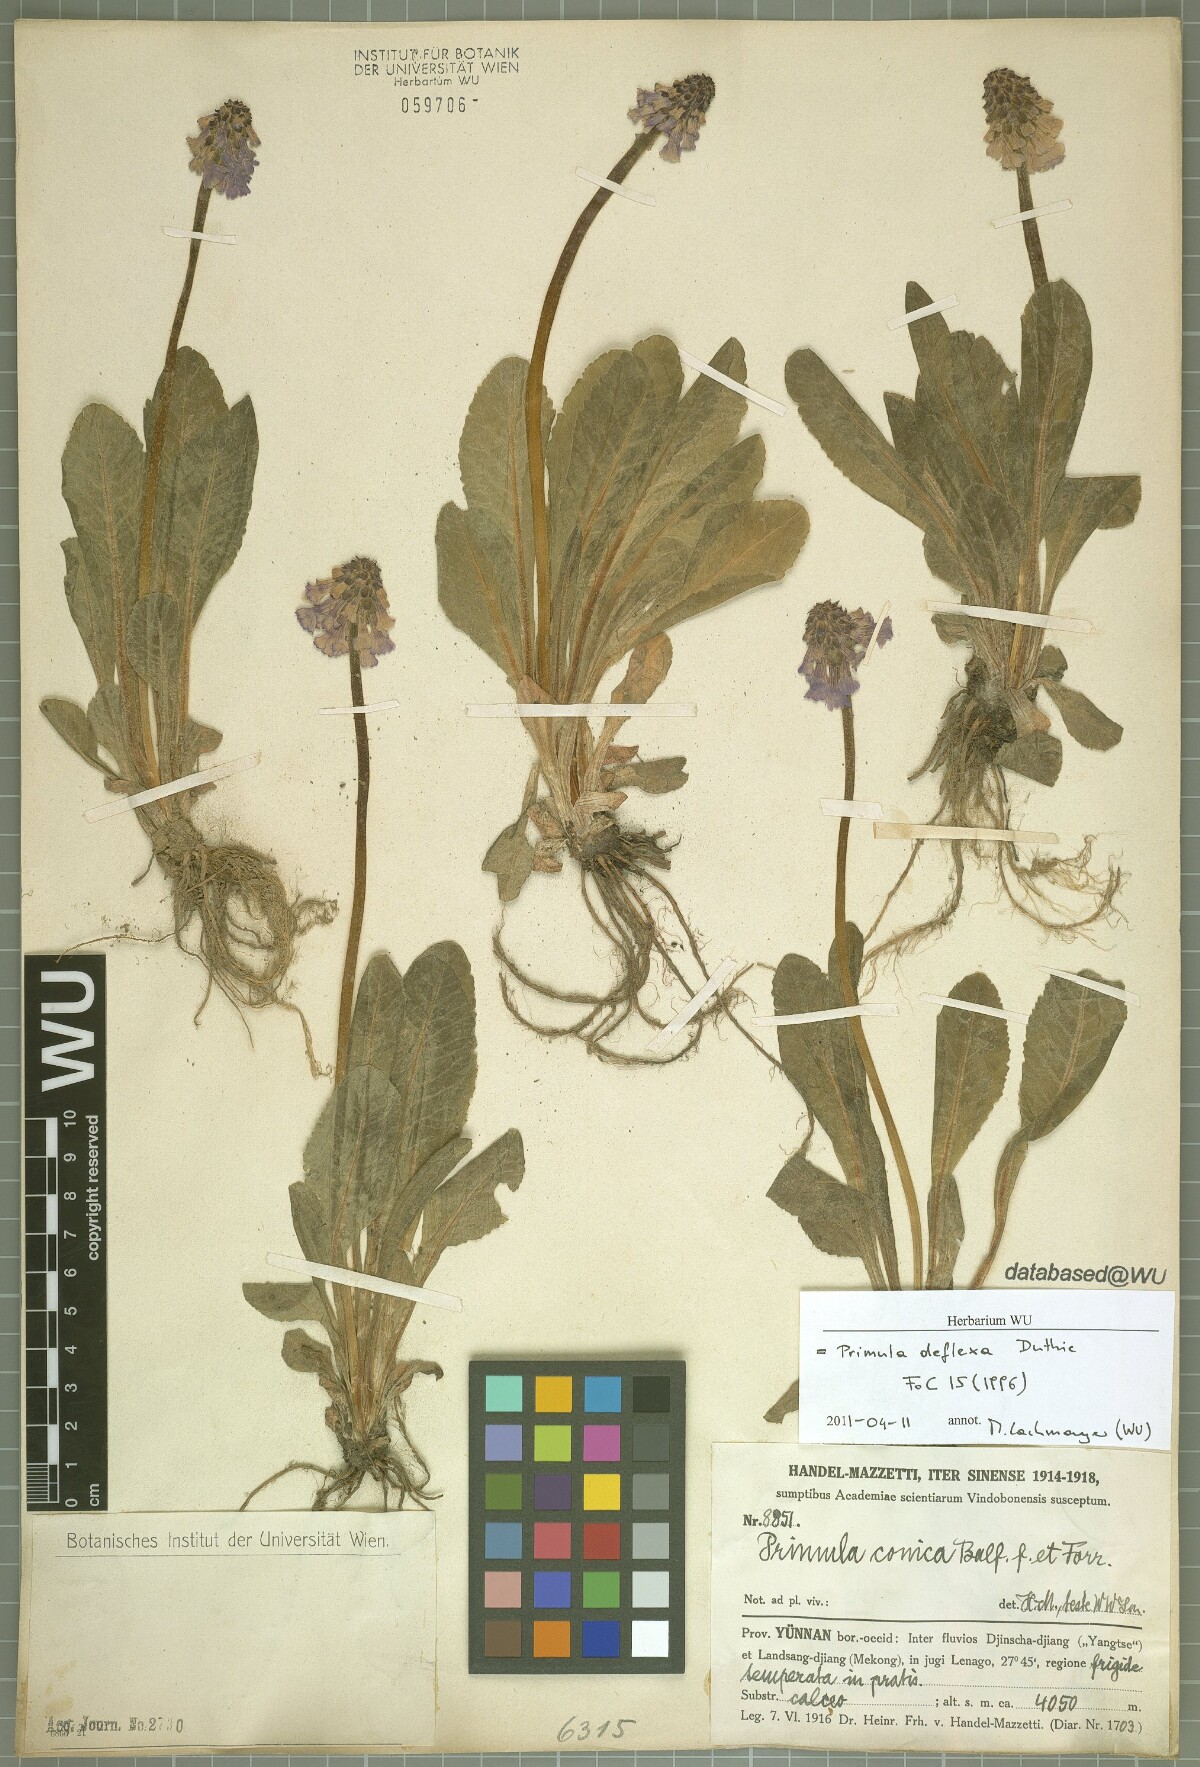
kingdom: Plantae
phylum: Tracheophyta
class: Magnoliopsida
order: Ericales
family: Primulaceae
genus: Primula
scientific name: Primula deflexa
